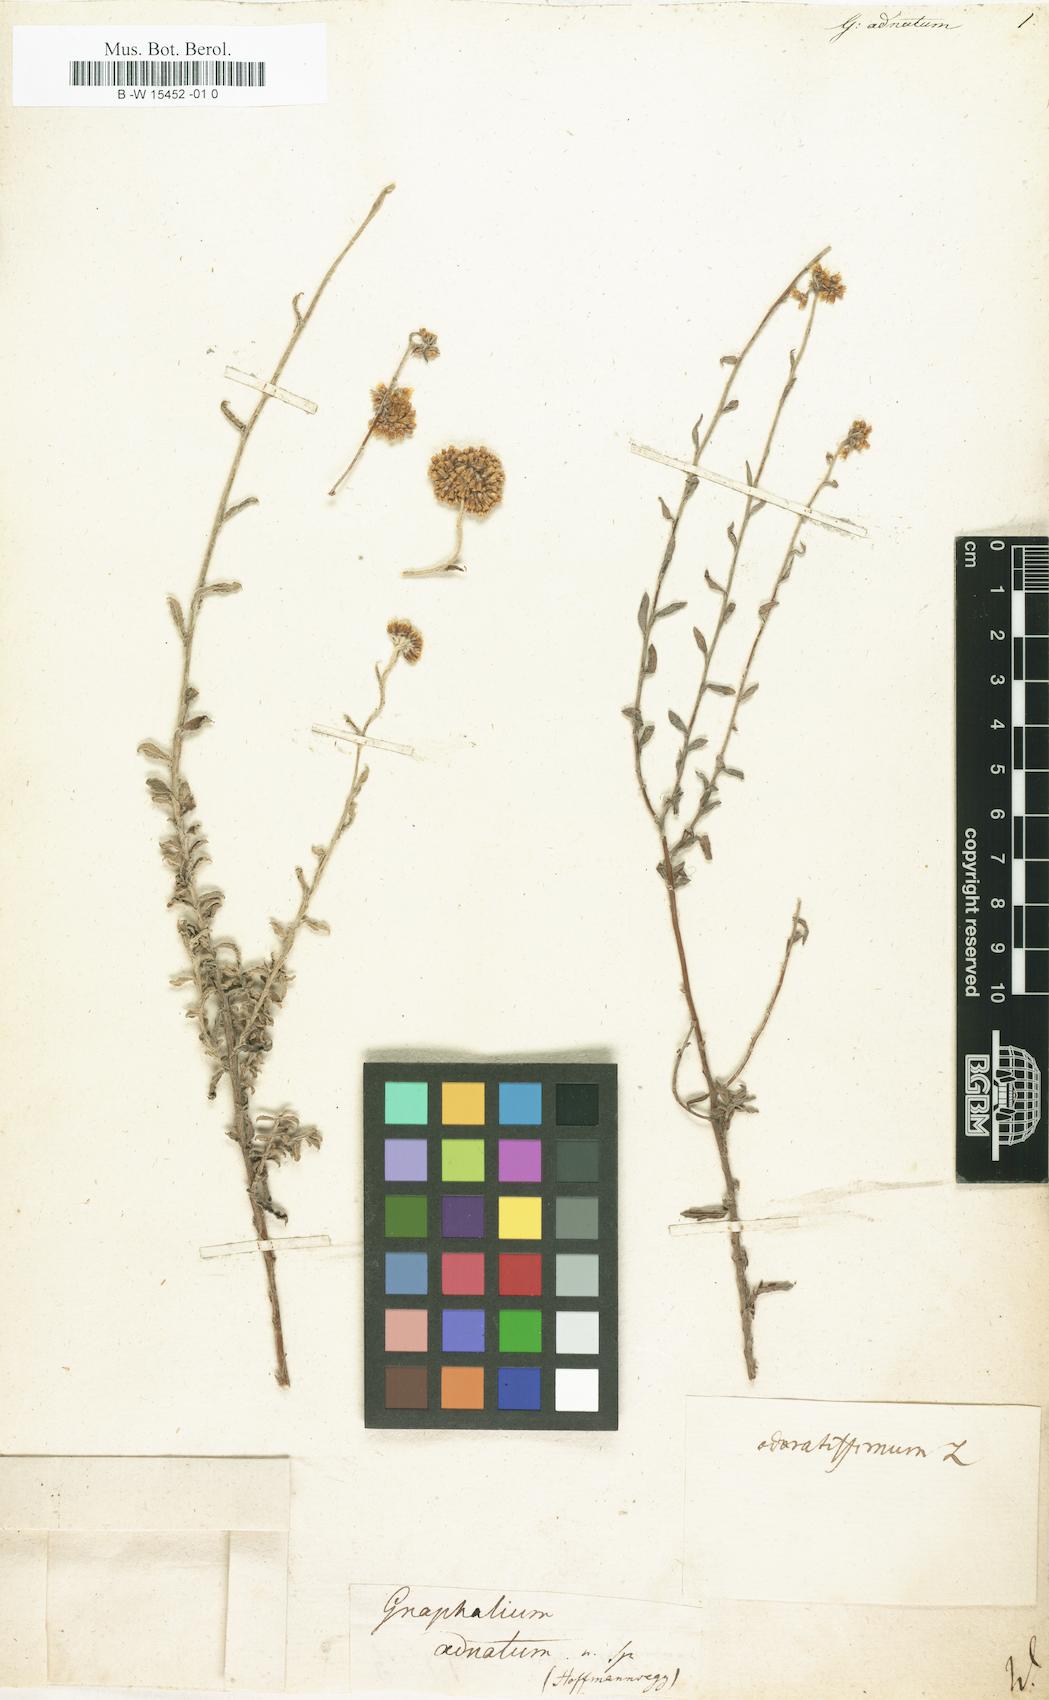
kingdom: Plantae
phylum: Tracheophyta
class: Magnoliopsida
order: Asterales
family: Asteraceae
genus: Pseudognaphalium
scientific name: Pseudognaphalium adnatum
